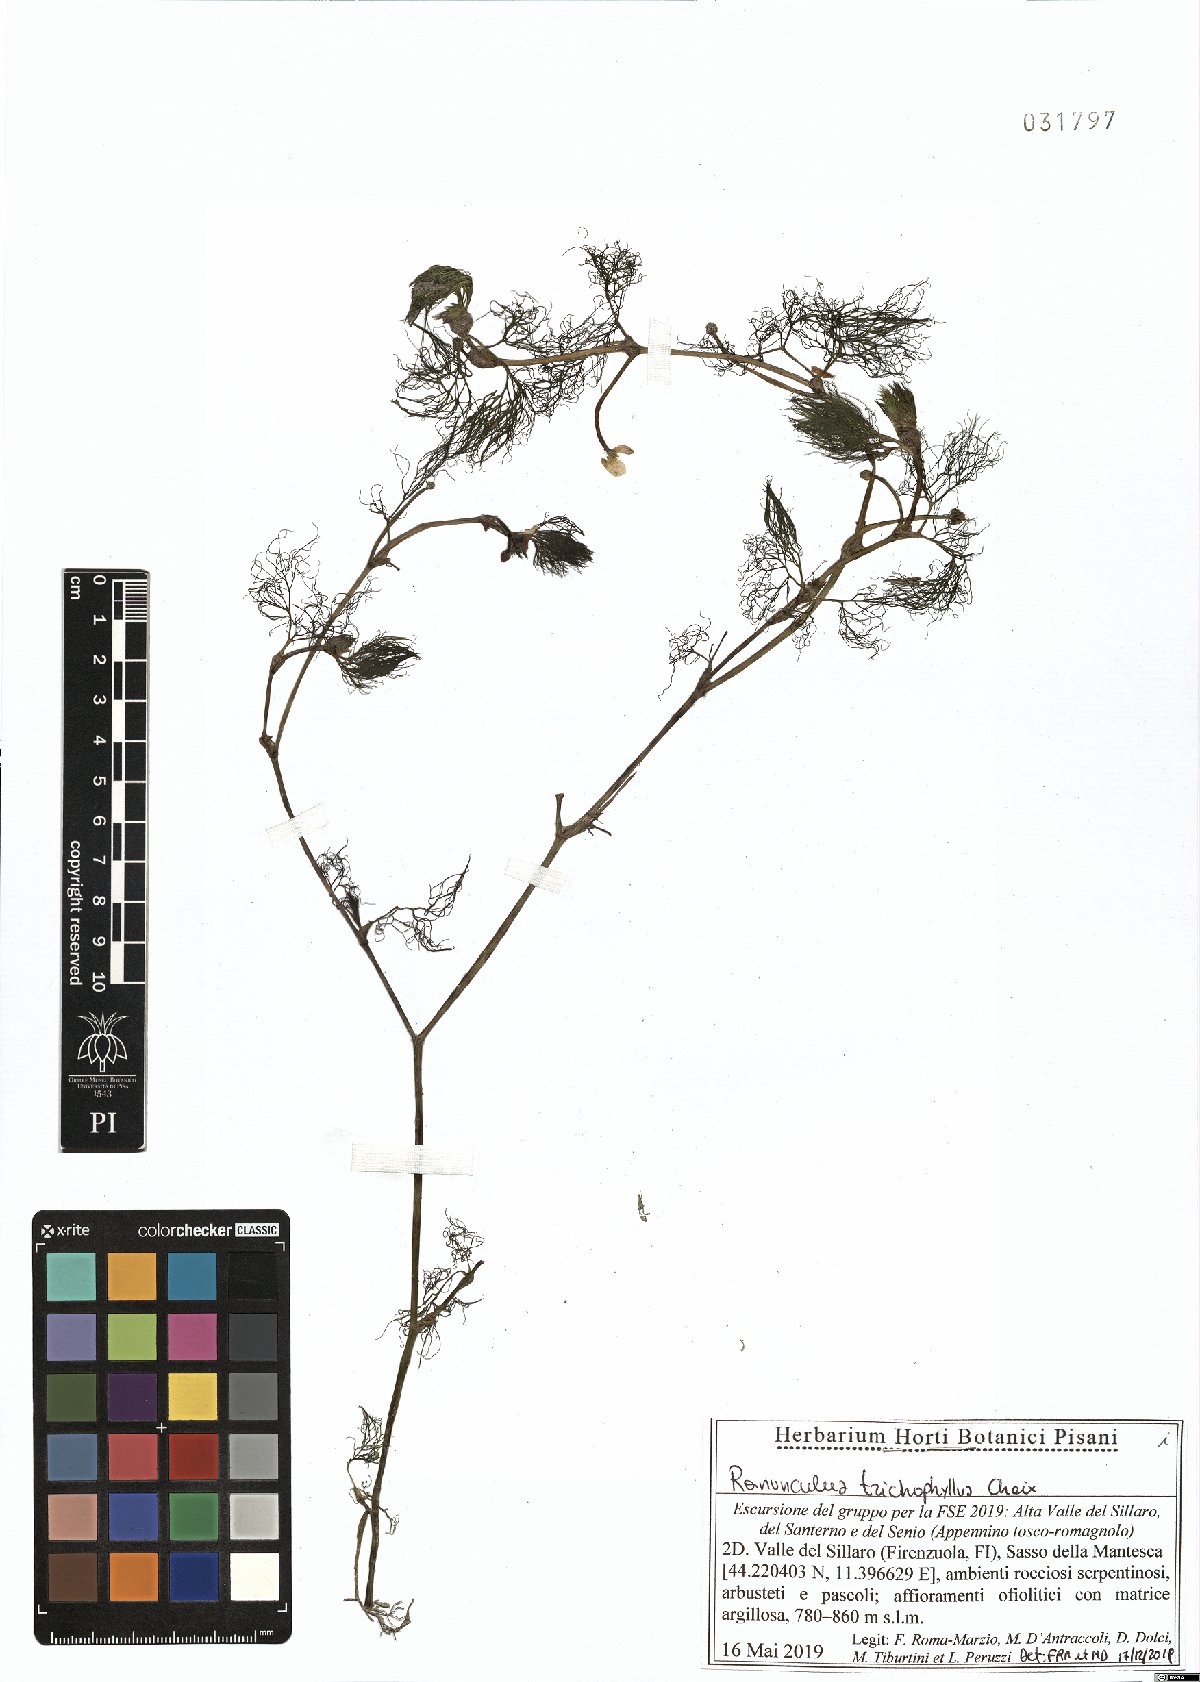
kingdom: Plantae
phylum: Tracheophyta
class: Magnoliopsida
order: Ranunculales
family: Ranunculaceae
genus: Ranunculus
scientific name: Ranunculus trichophyllus
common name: Thread-leaved water-crowfoot
